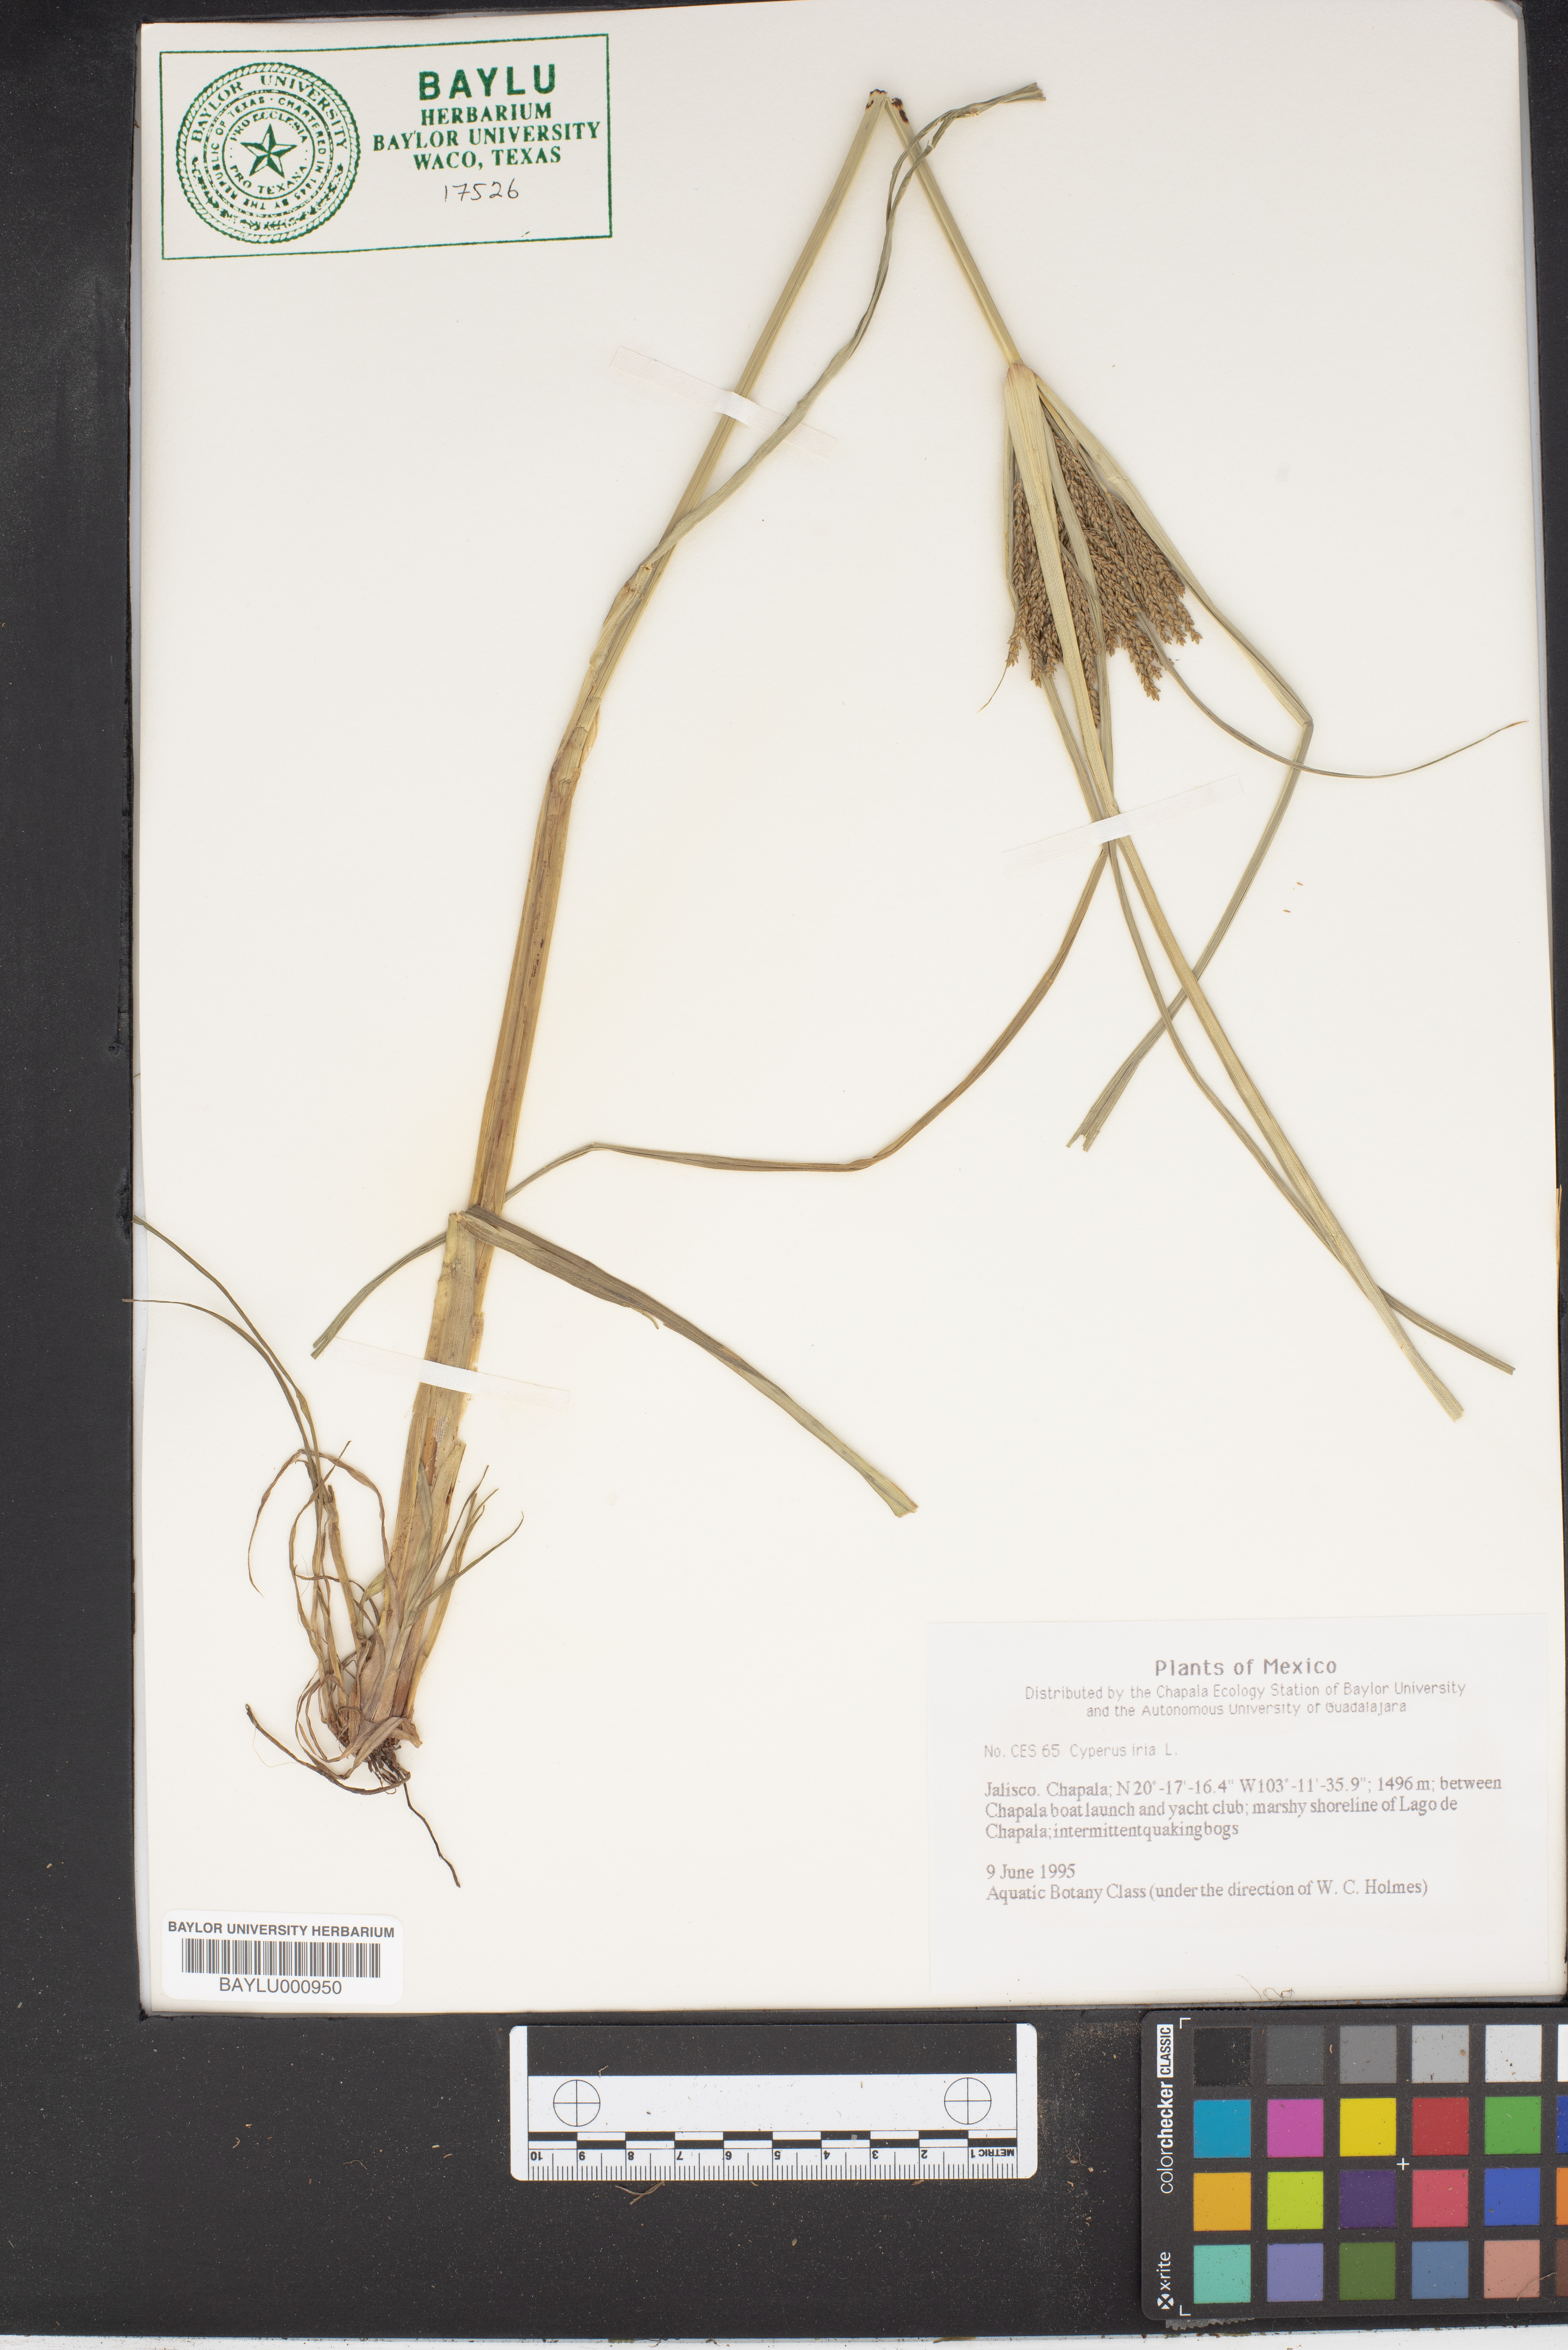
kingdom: Plantae
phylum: Tracheophyta
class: Liliopsida
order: Poales
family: Cyperaceae
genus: Cyperus
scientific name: Cyperus iria
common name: Ricefield flatsedge
